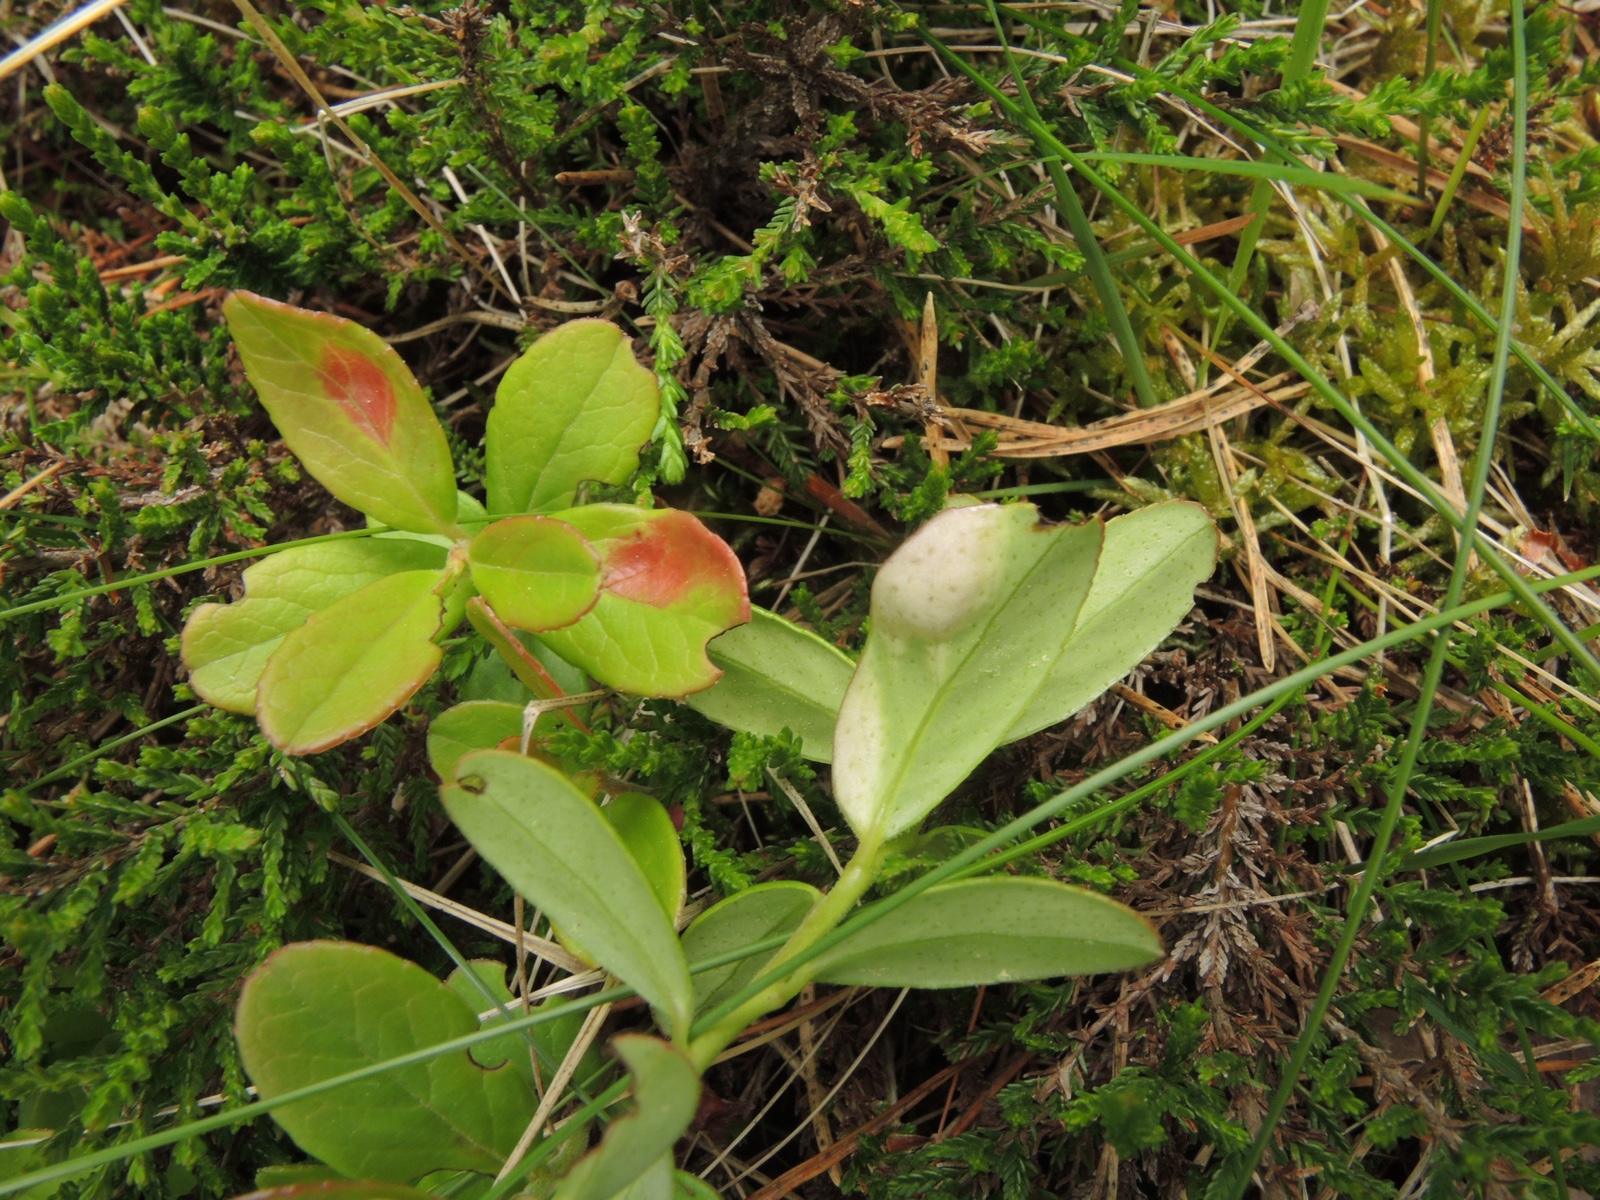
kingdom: Fungi
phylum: Basidiomycota
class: Exobasidiomycetes
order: Exobasidiales
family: Exobasidiaceae
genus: Exobasidium
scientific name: Exobasidium vaccinii
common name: tyttebærblad-bøllesvamp
